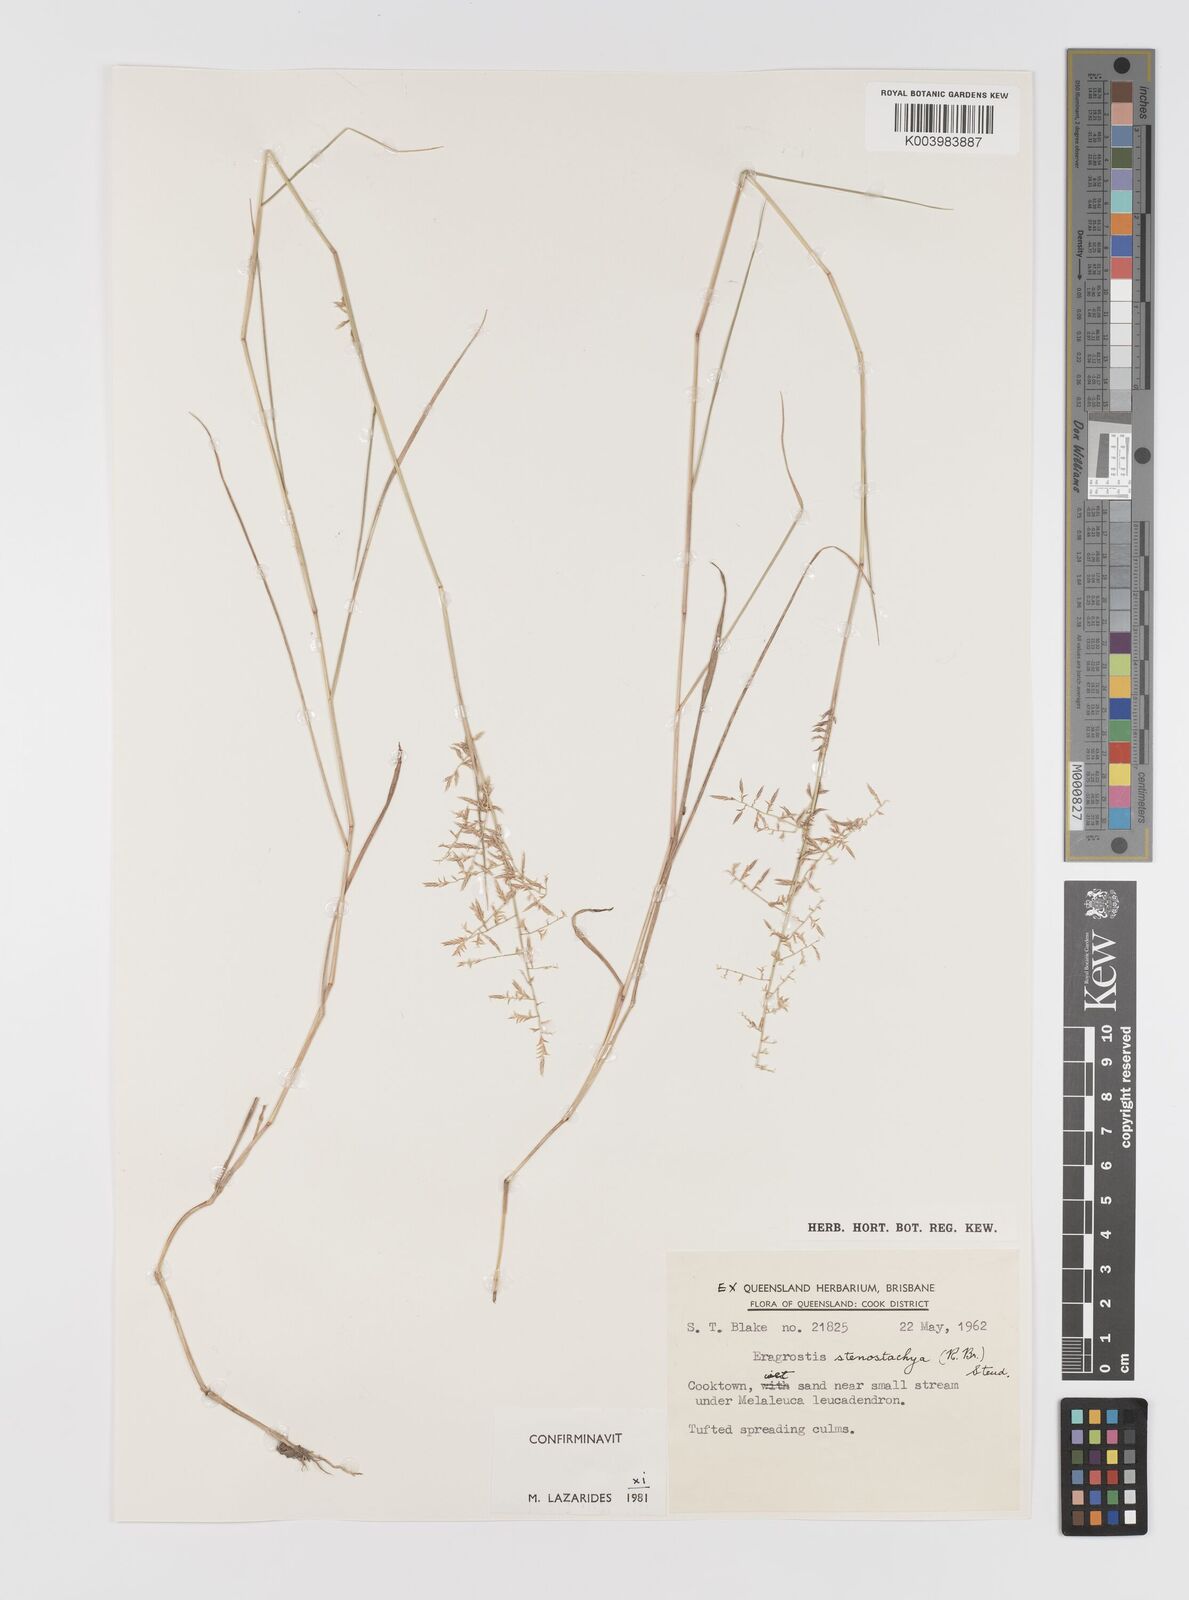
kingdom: Plantae
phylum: Tracheophyta
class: Liliopsida
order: Poales
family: Poaceae
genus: Eragrostis
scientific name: Eragrostis stenostachya
